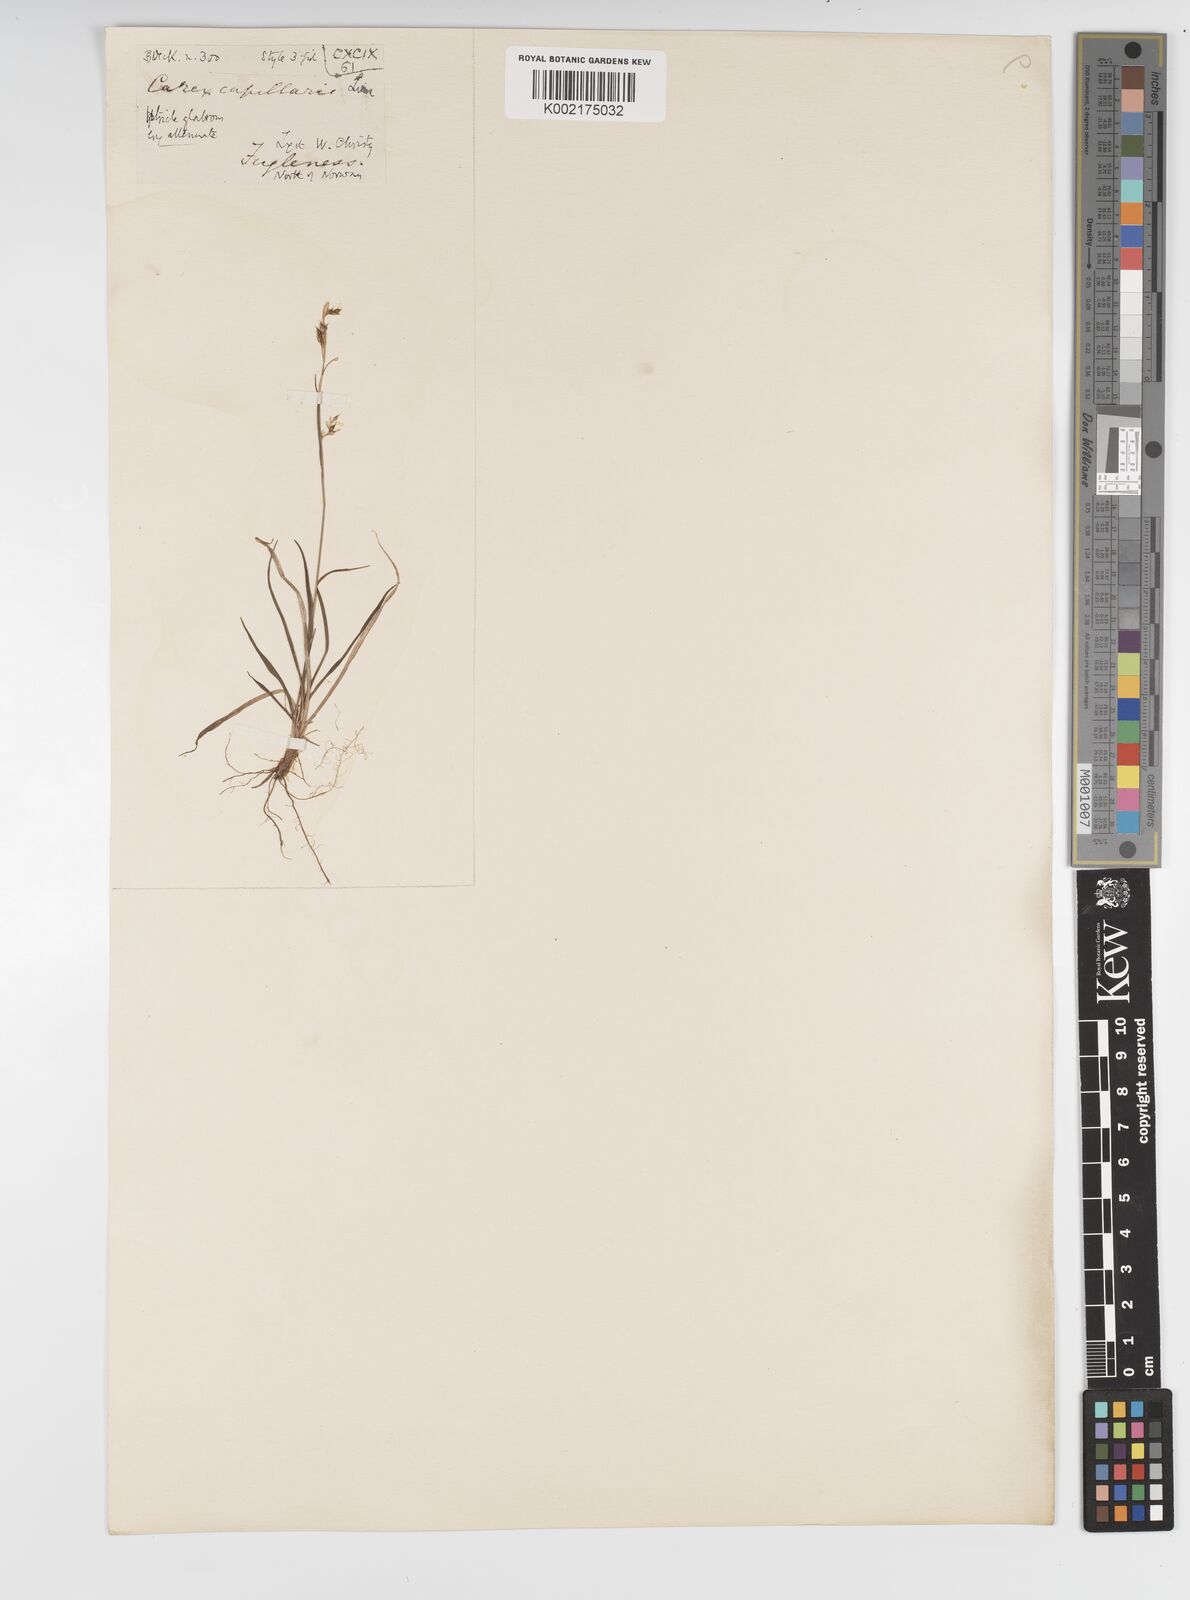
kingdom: Plantae
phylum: Tracheophyta
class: Liliopsida
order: Poales
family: Cyperaceae
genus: Carex
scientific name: Carex capillaris
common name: Hair sedge
